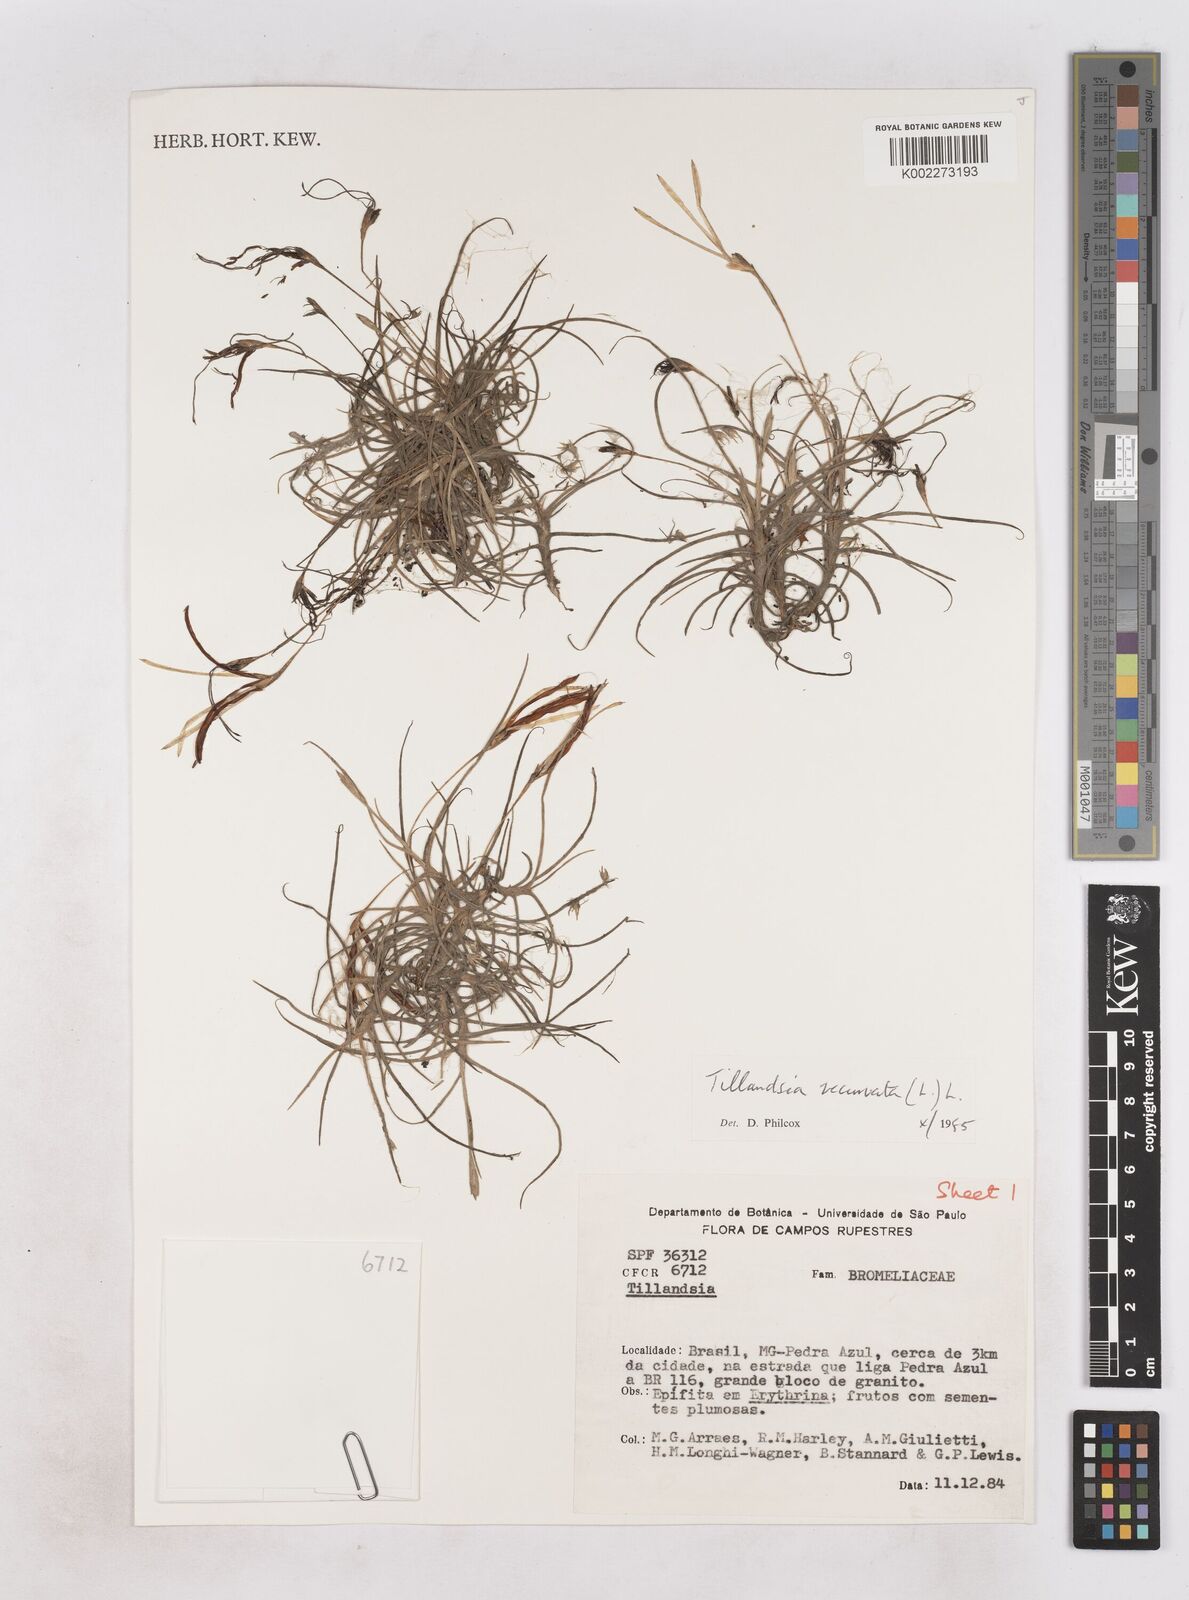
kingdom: Plantae
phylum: Tracheophyta
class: Liliopsida
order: Poales
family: Bromeliaceae
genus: Tillandsia
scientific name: Tillandsia recurvata
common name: Small ballmoss
